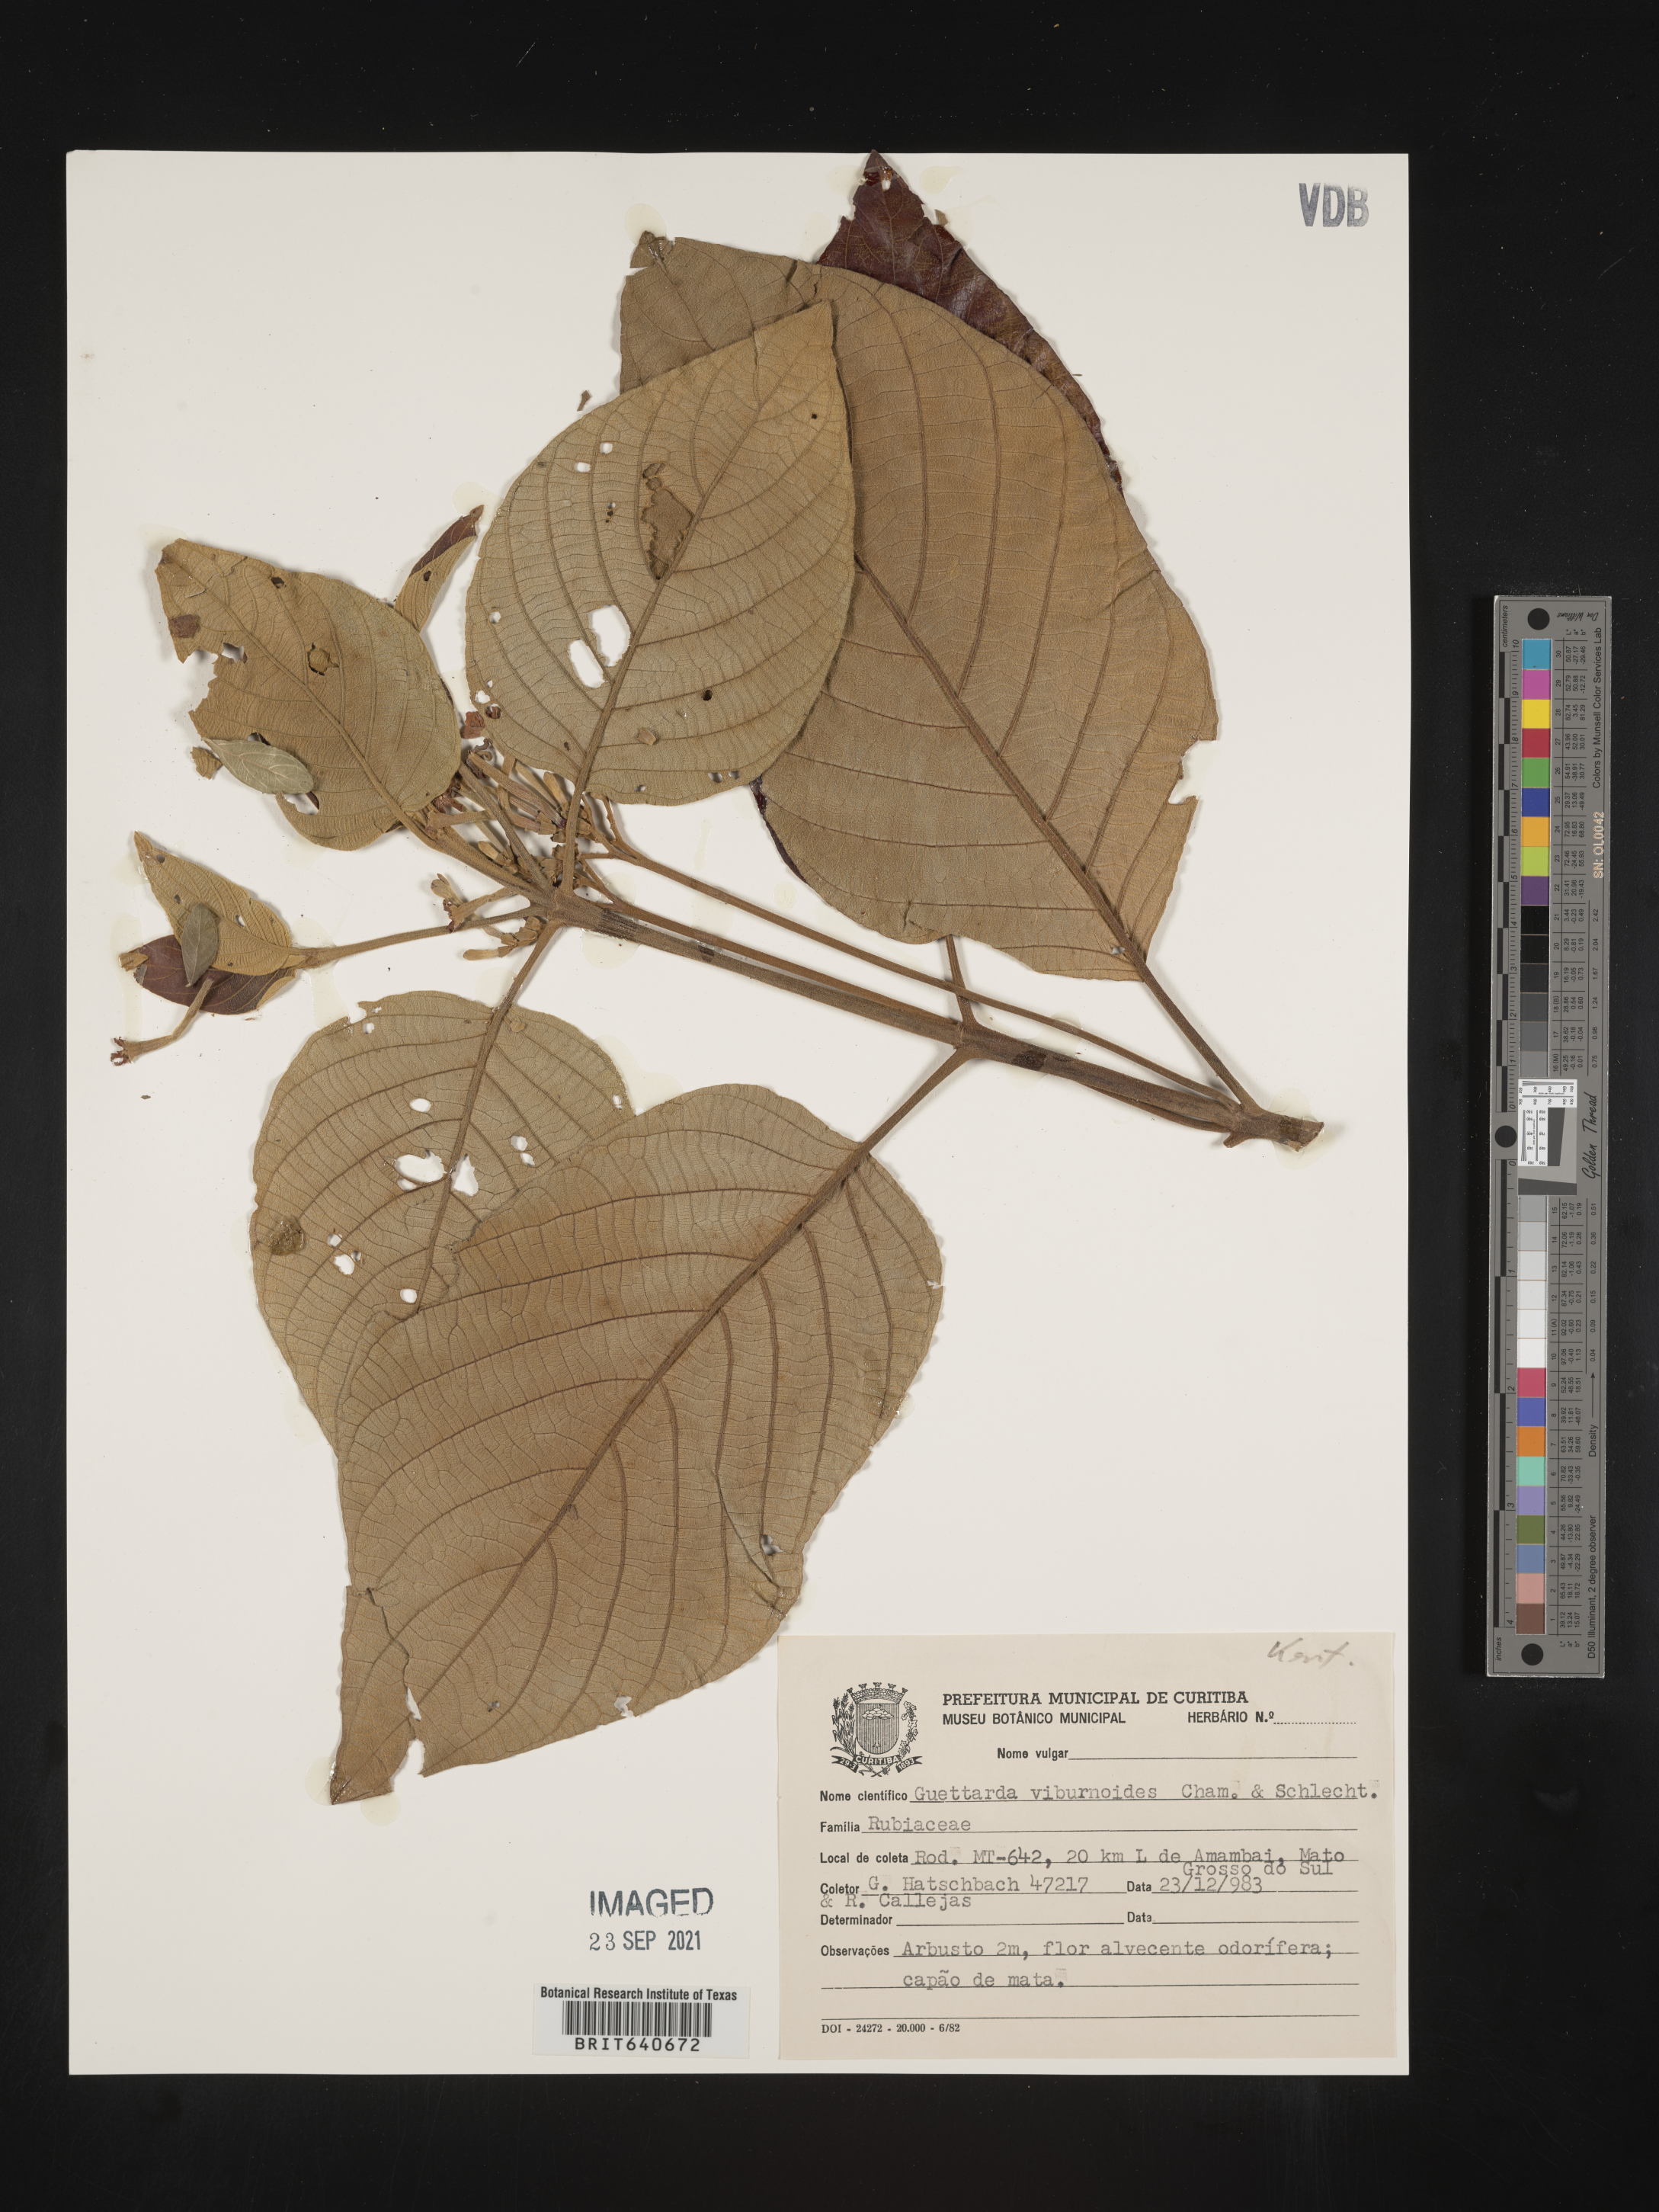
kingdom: Plantae
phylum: Tracheophyta
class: Magnoliopsida
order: Gentianales
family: Rubiaceae
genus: Guettarda
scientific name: Guettarda
